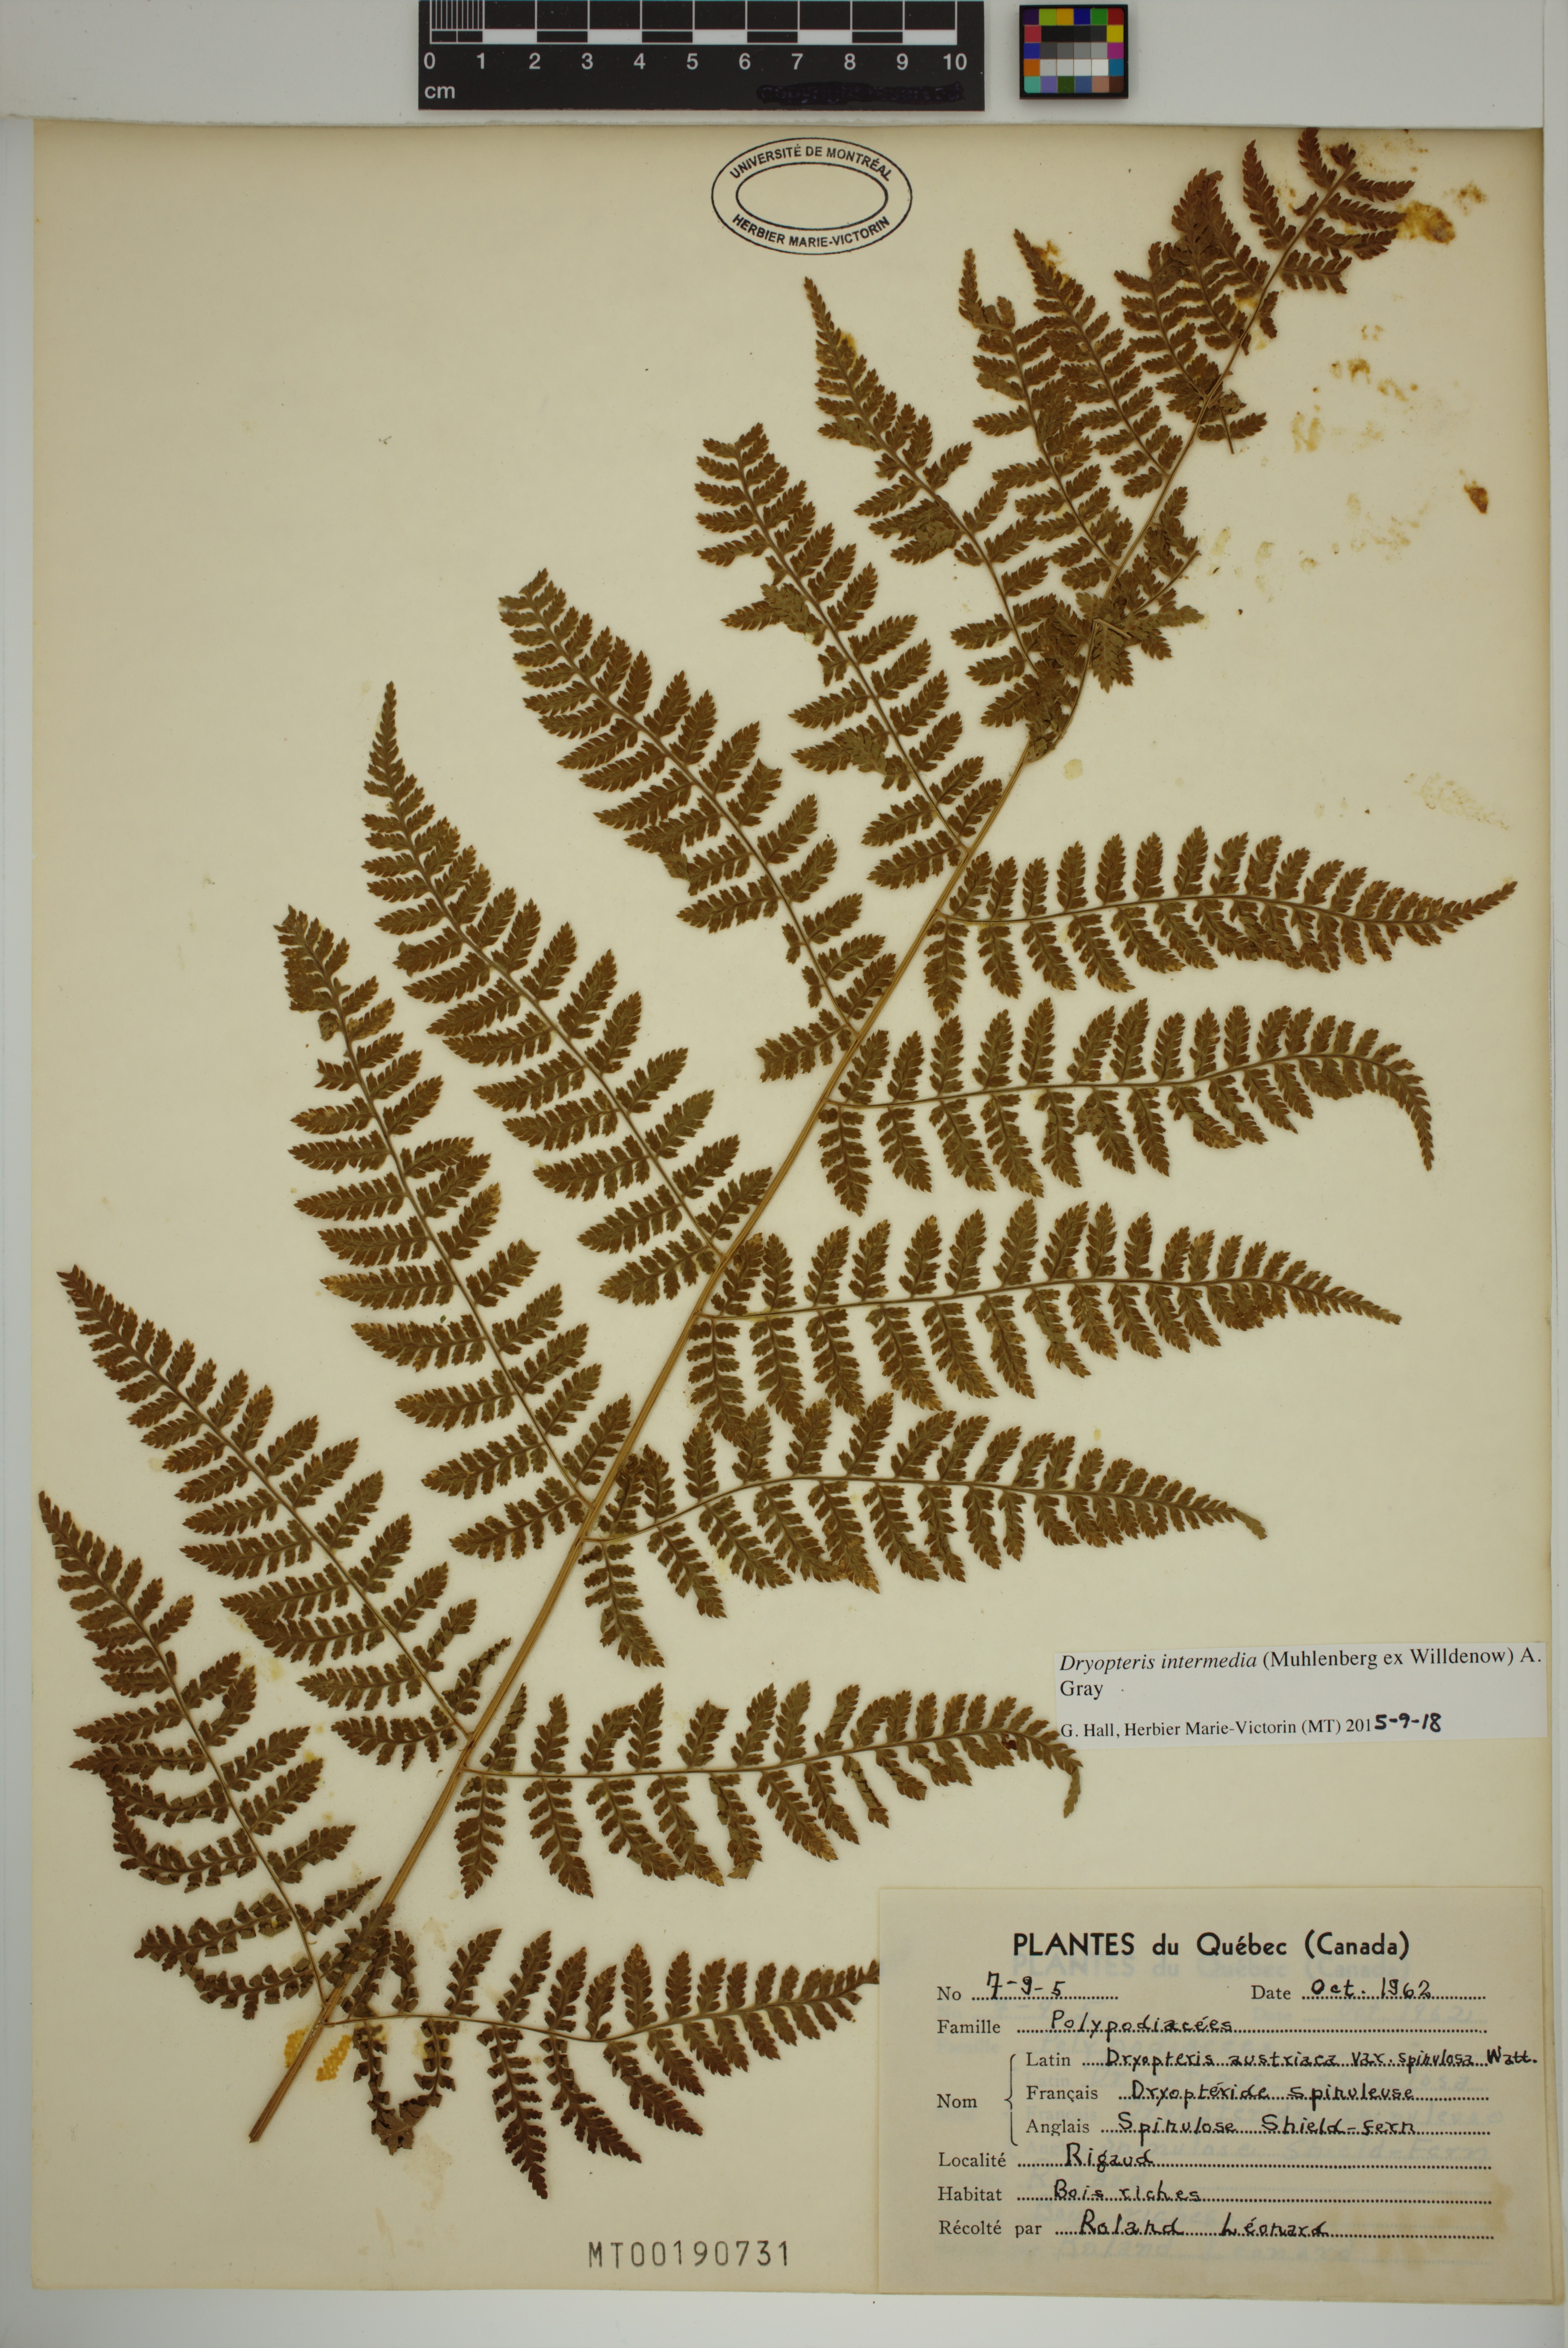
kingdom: Plantae
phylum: Tracheophyta
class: Polypodiopsida
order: Polypodiales
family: Dryopteridaceae
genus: Dryopteris
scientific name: Dryopteris intermedia
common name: Evergreen wood fern
